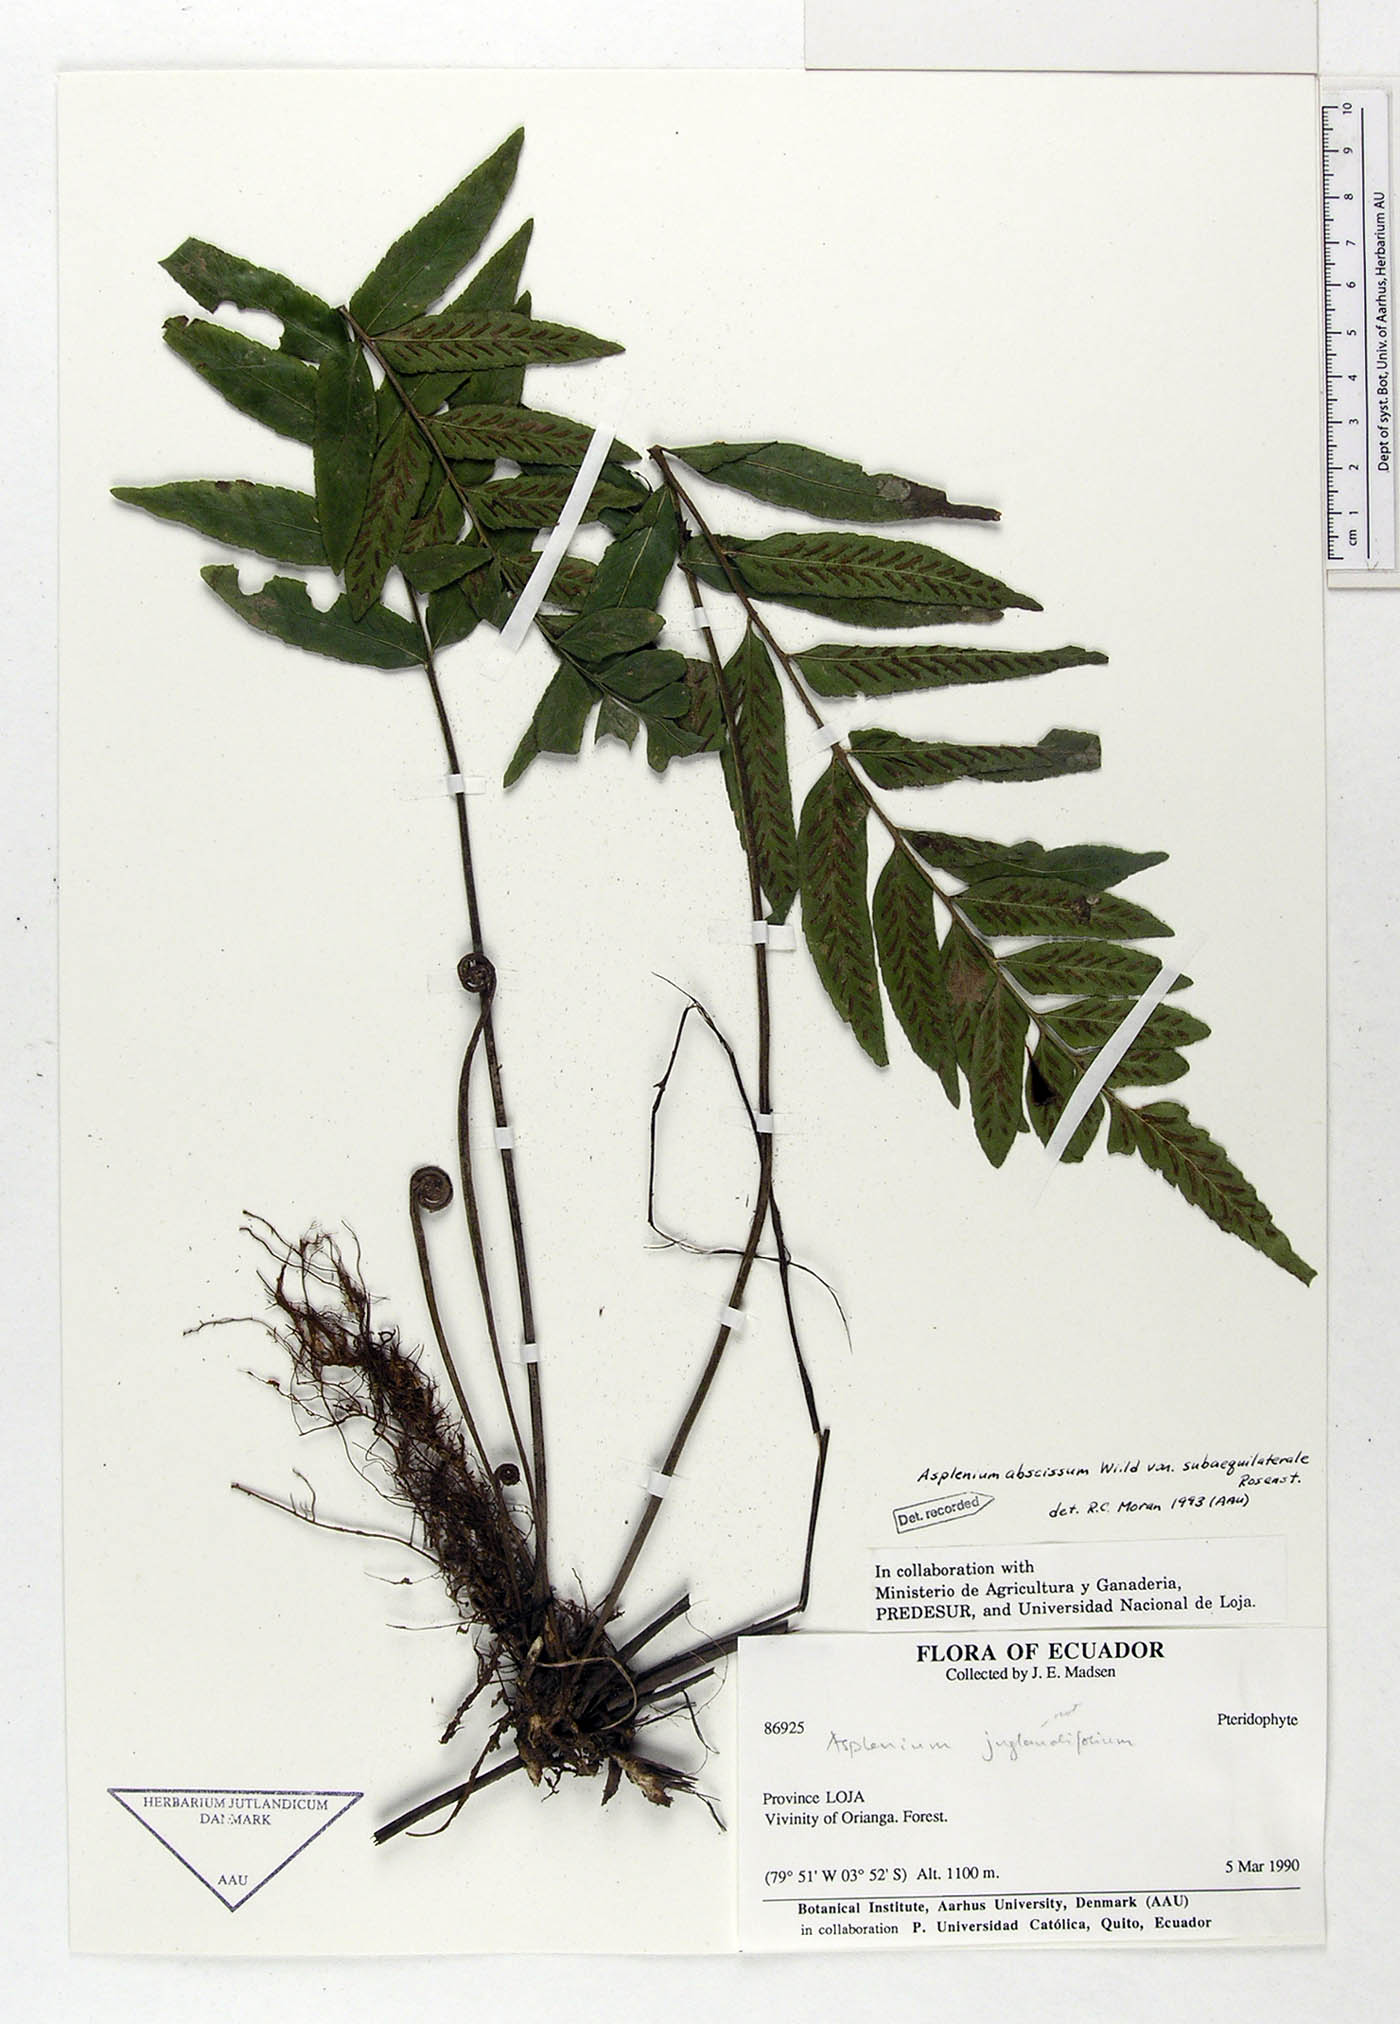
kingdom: Plantae
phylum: Tracheophyta
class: Polypodiopsida
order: Polypodiales
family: Aspleniaceae
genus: Asplenium
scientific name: Asplenium abscissum
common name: Cutleaf spleenwort
